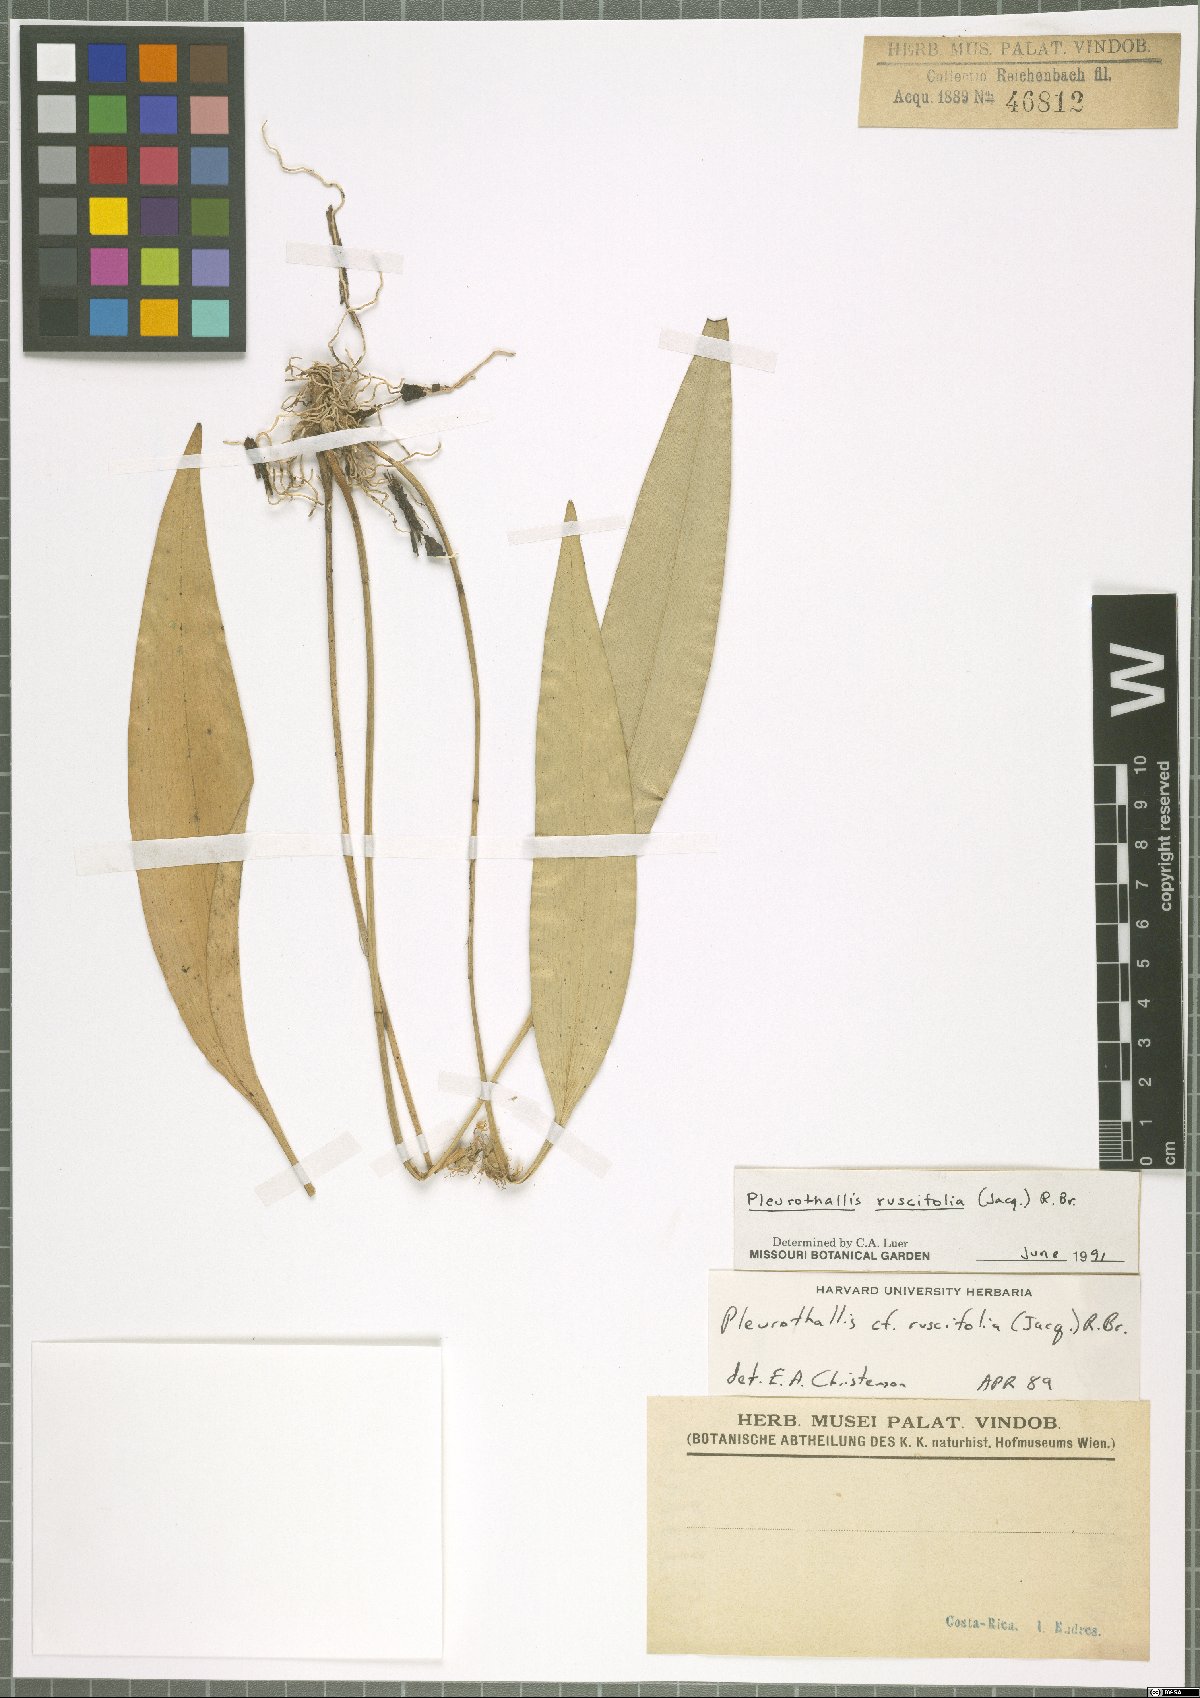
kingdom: Plantae
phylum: Tracheophyta
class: Liliopsida
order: Asparagales
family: Orchidaceae
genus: Pleurothallis
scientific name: Pleurothallis ruscifolia
